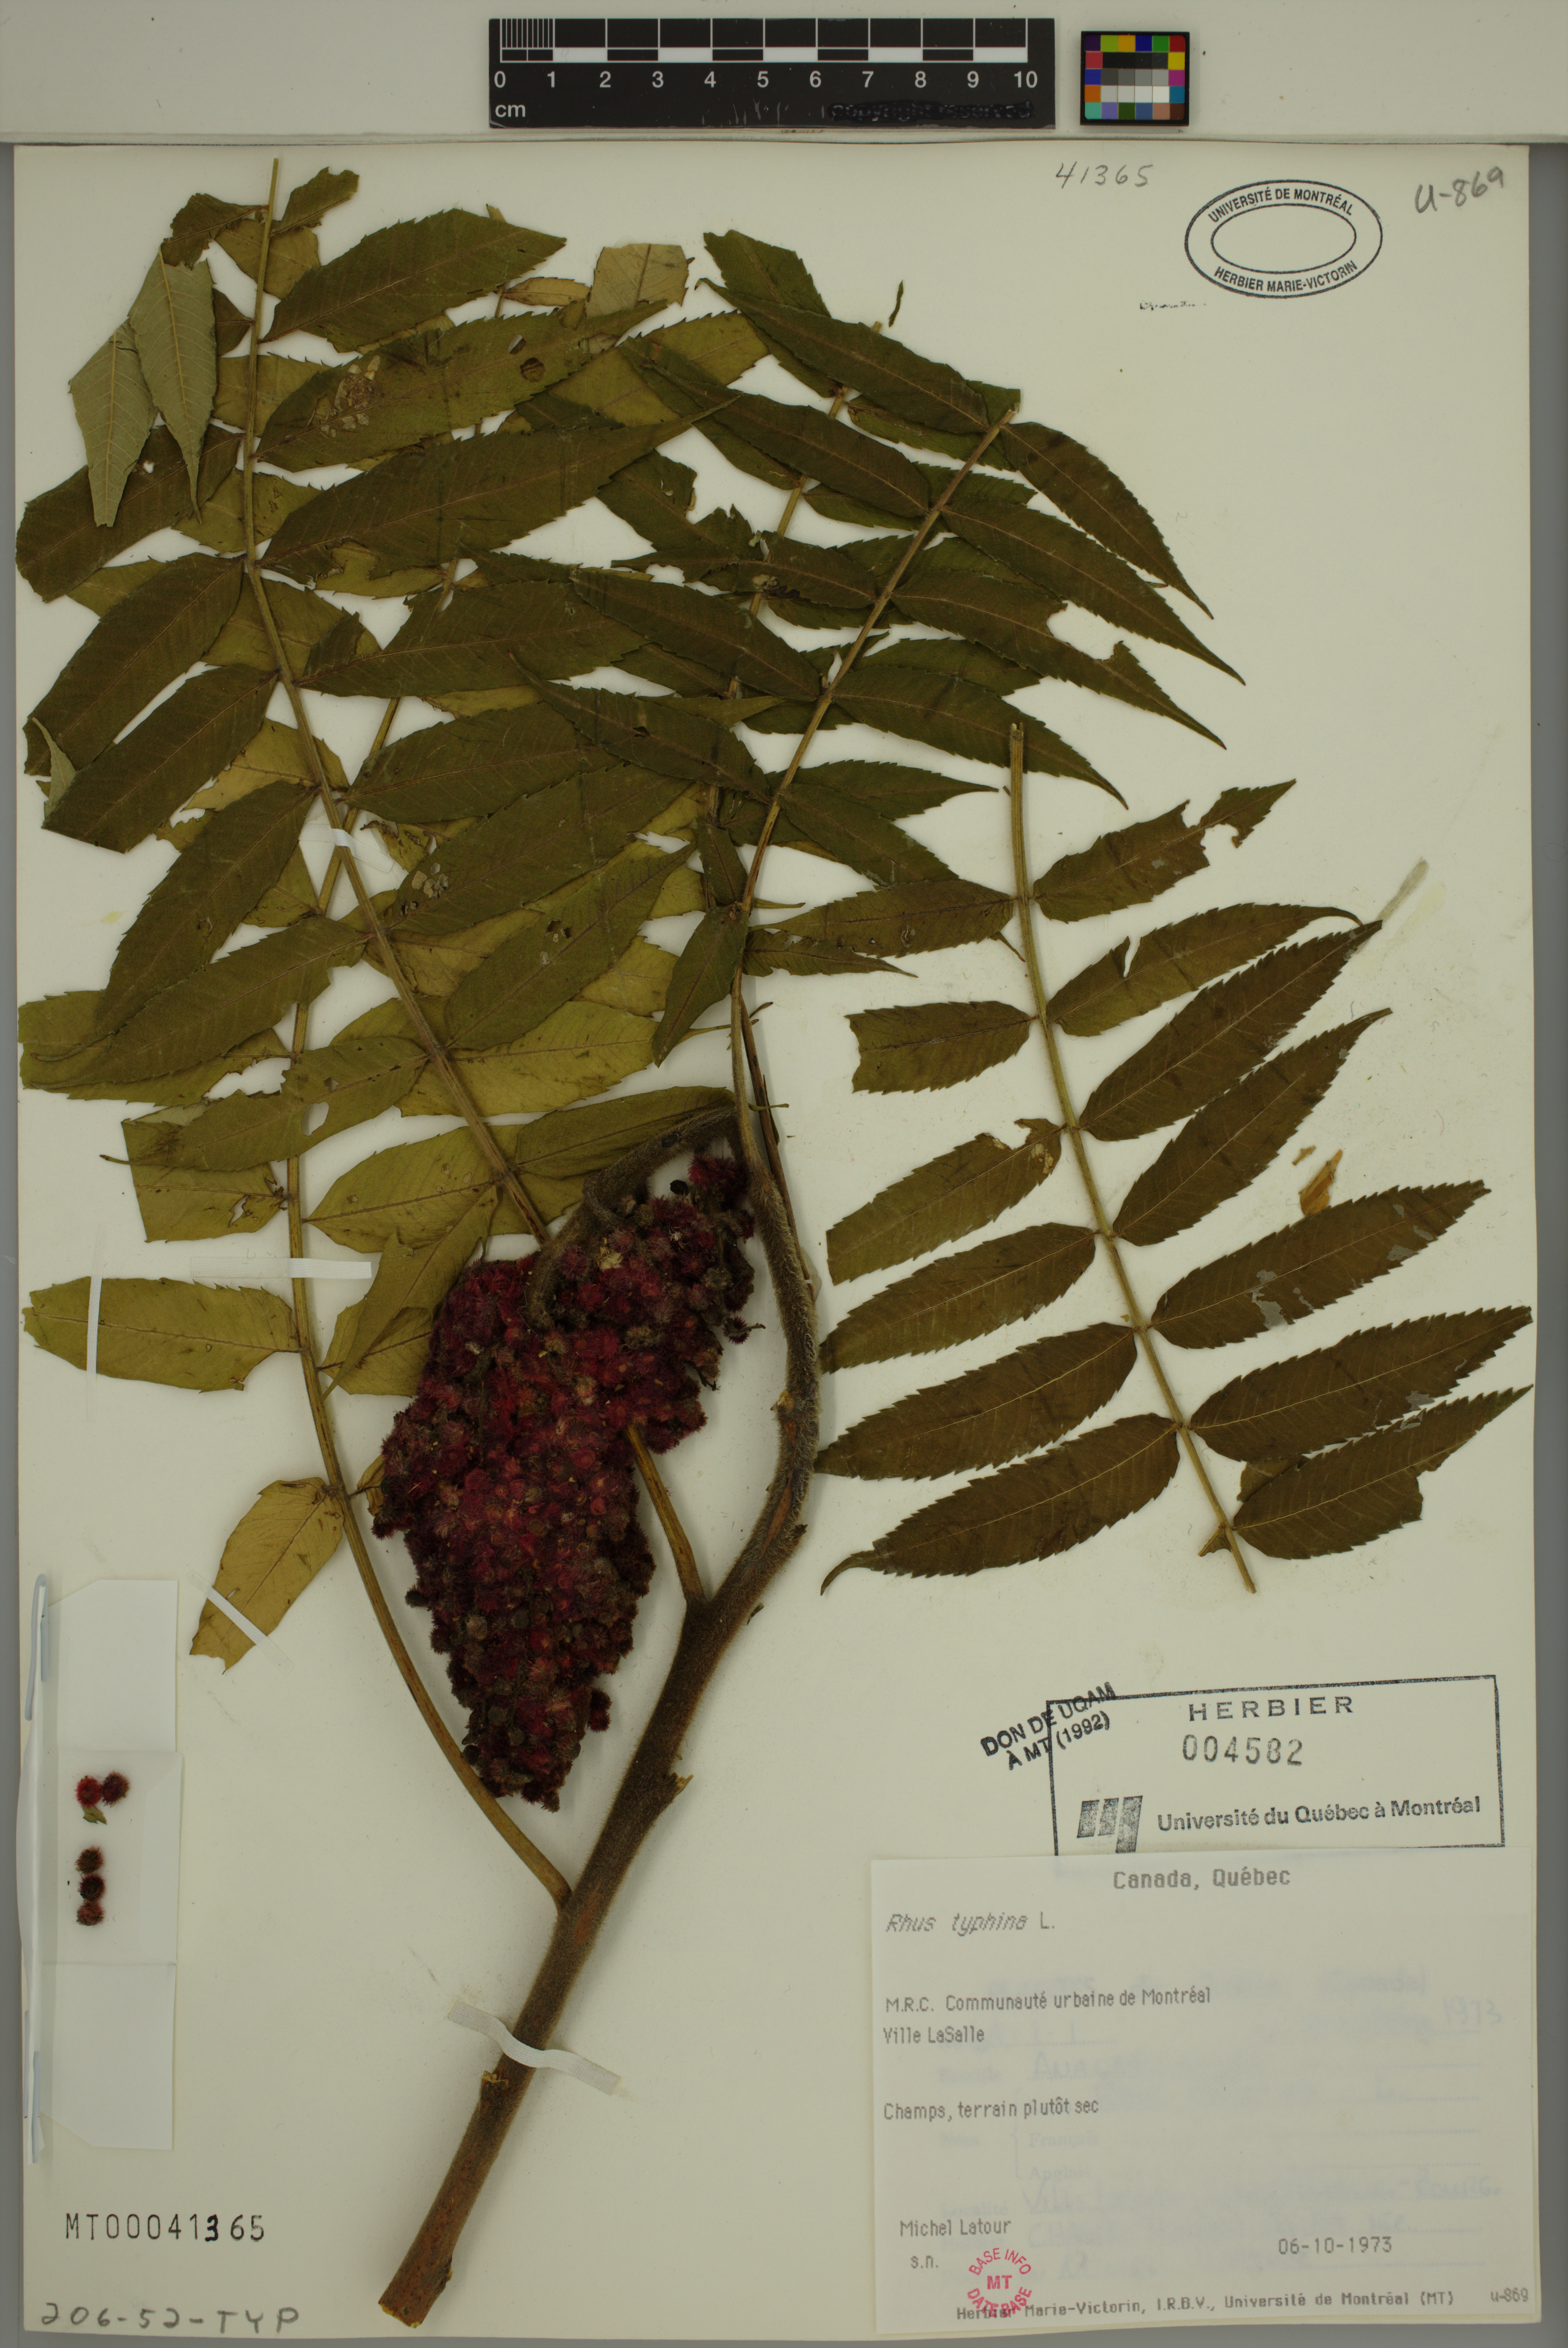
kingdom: Plantae
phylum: Tracheophyta
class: Magnoliopsida
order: Sapindales
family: Anacardiaceae
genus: Rhus
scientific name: Rhus typhina
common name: Staghorn sumac
